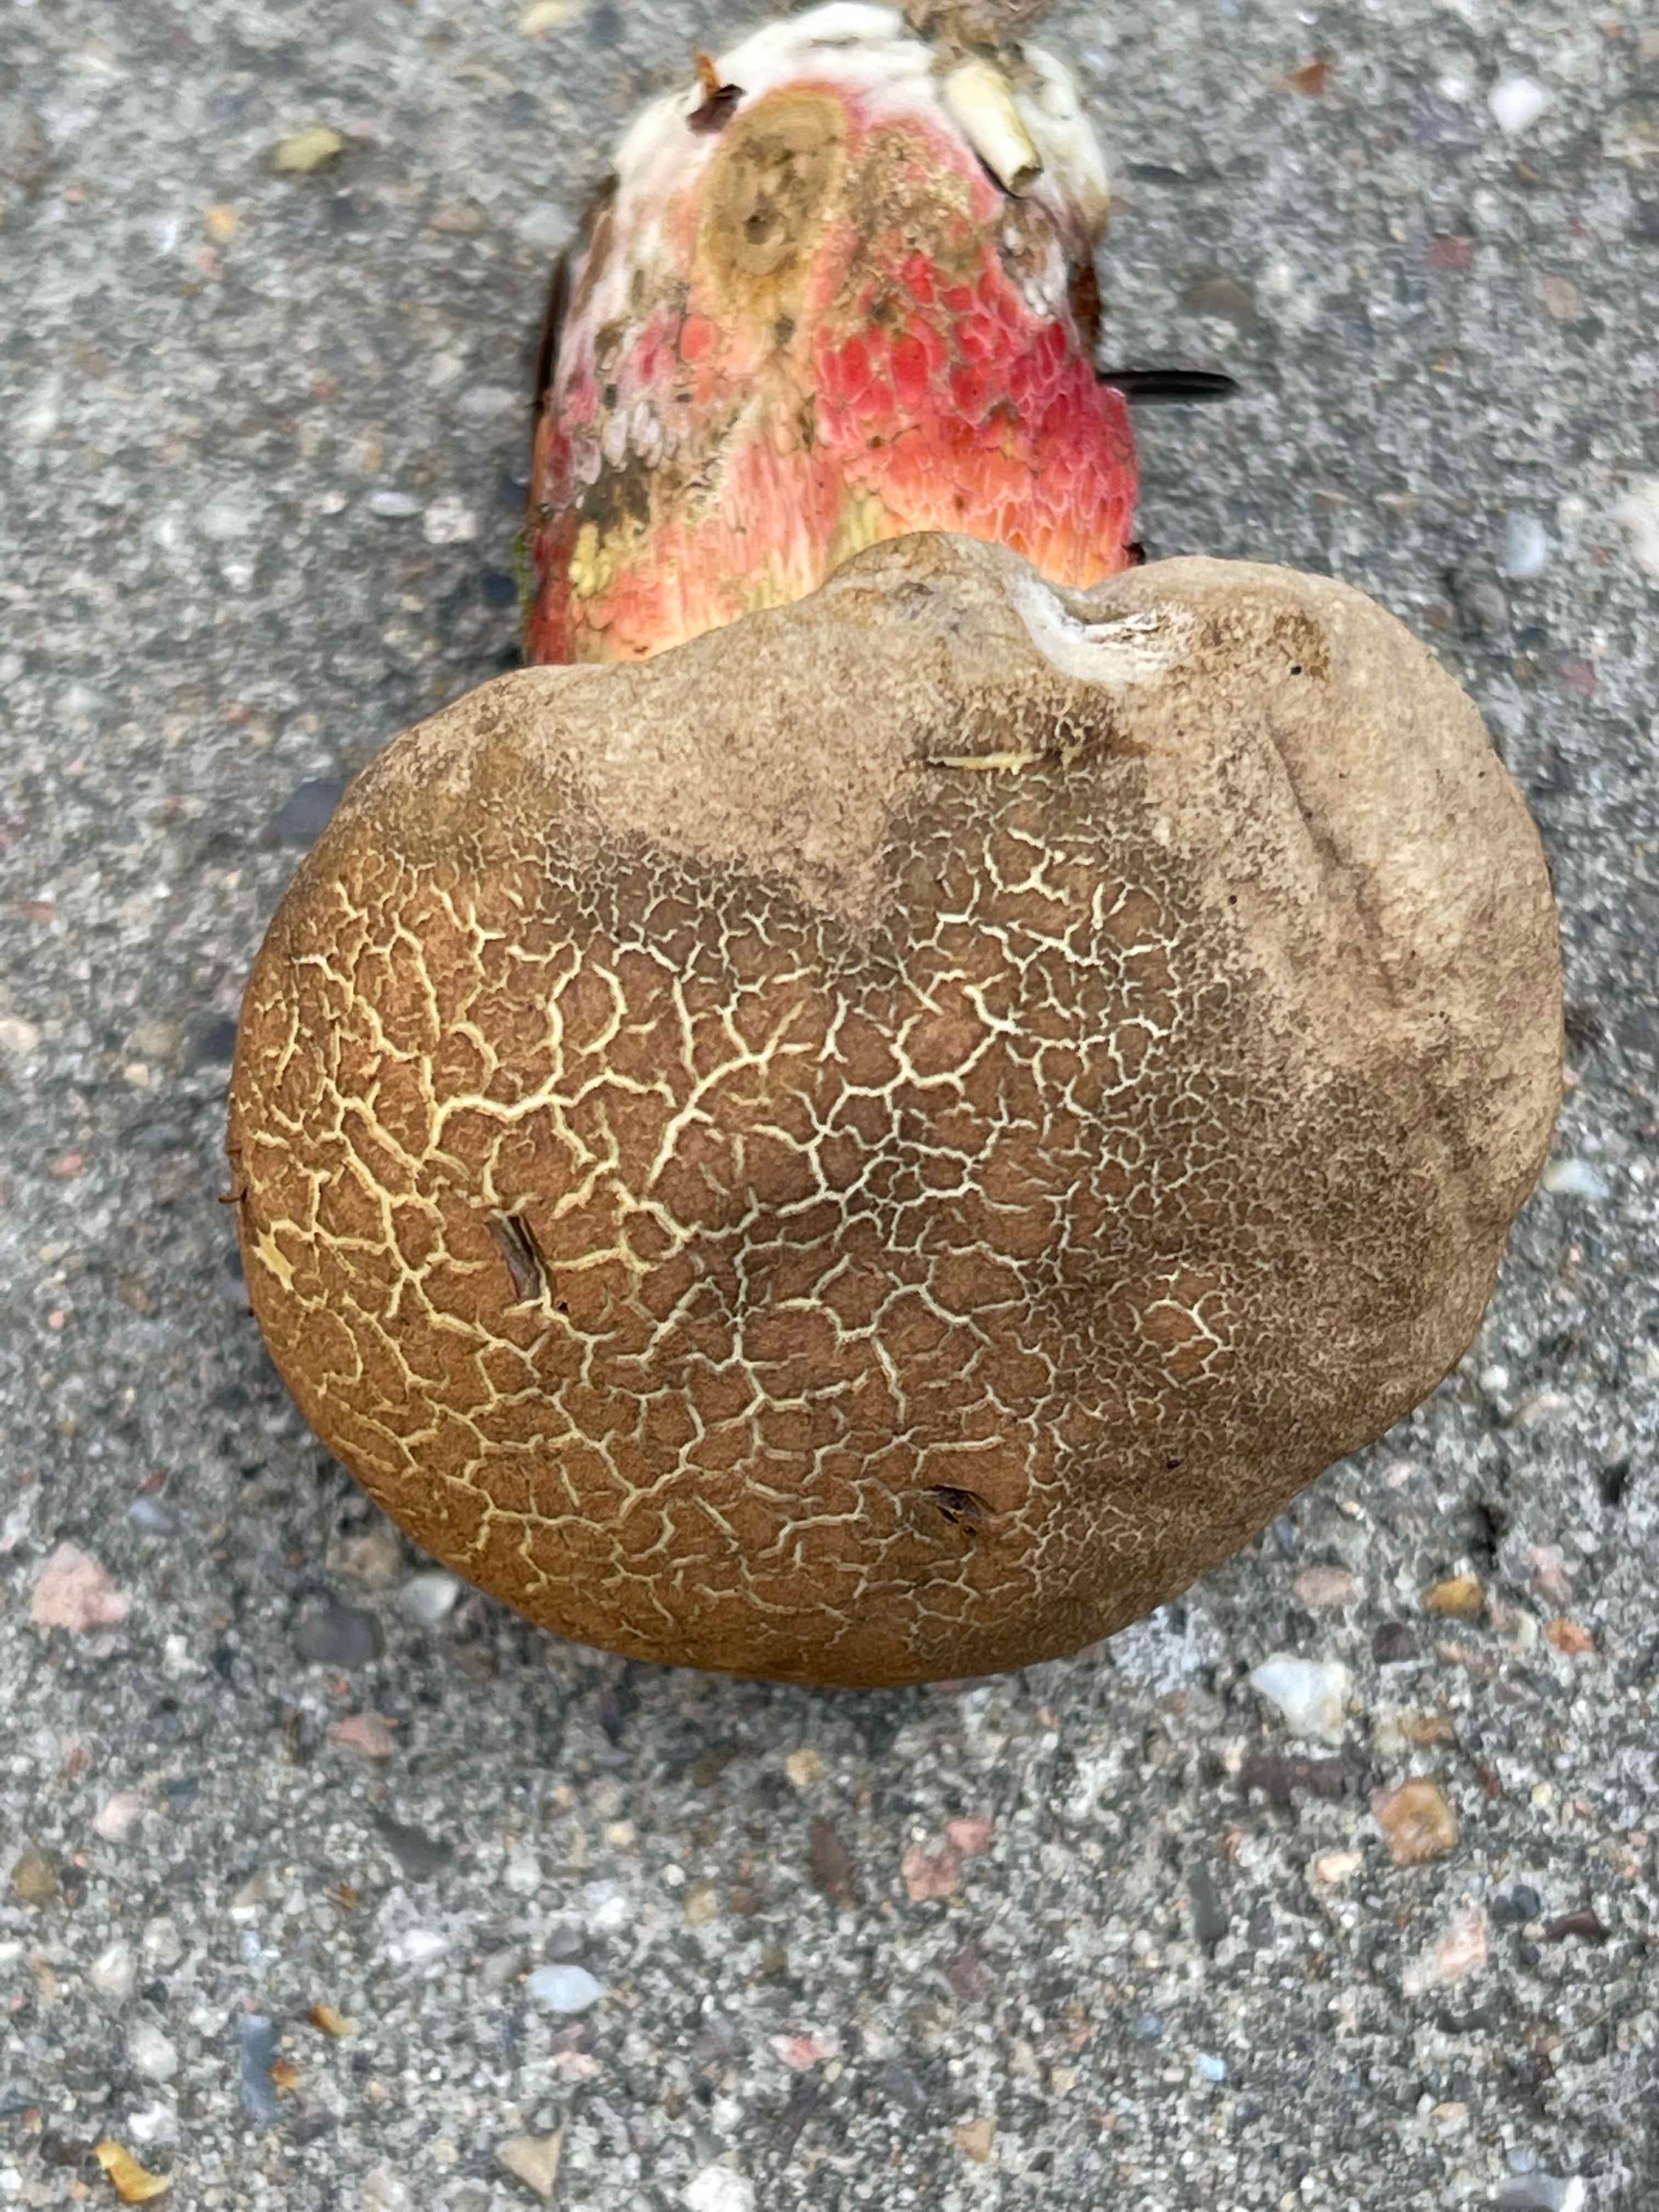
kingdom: Fungi
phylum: Basidiomycota
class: Agaricomycetes
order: Boletales
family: Boletaceae
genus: Caloboletus
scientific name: Caloboletus calopus
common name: skønfodet rørhat
